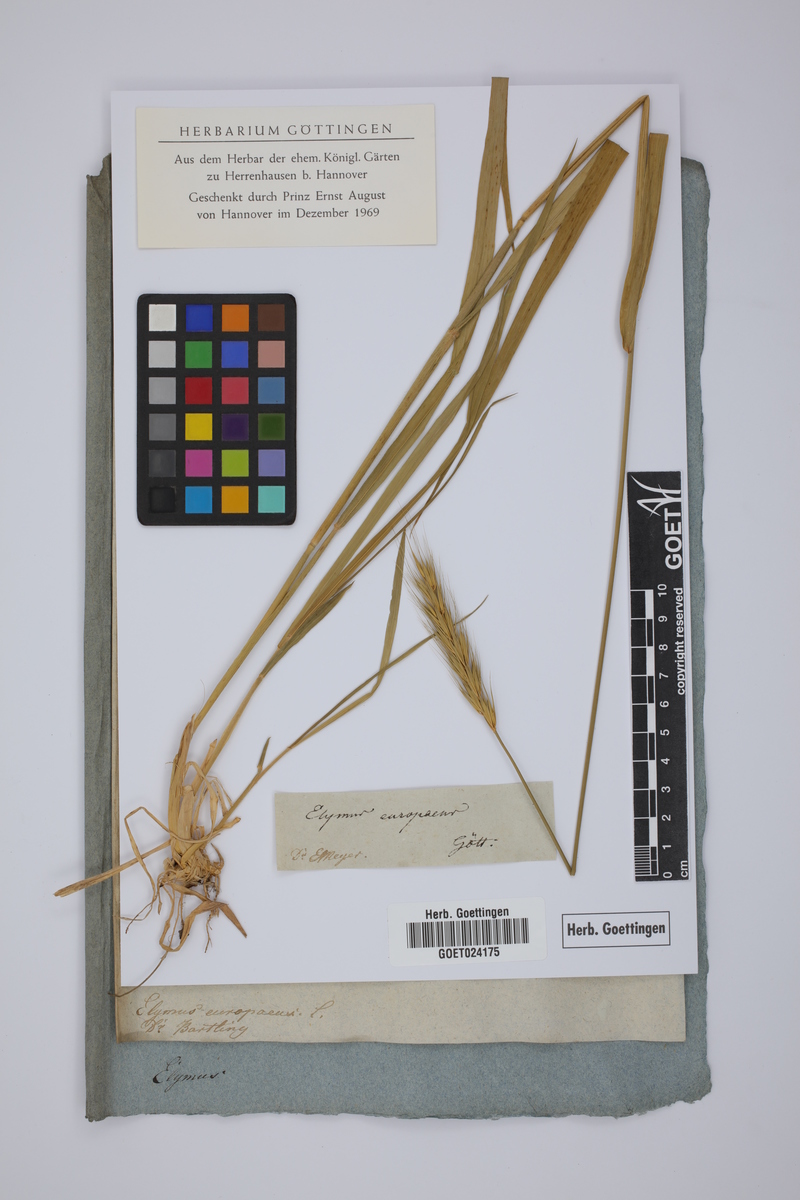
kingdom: Plantae
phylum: Tracheophyta
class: Liliopsida
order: Poales
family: Poaceae
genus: Hordelymus
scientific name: Hordelymus europaeus
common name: Wood-barley
